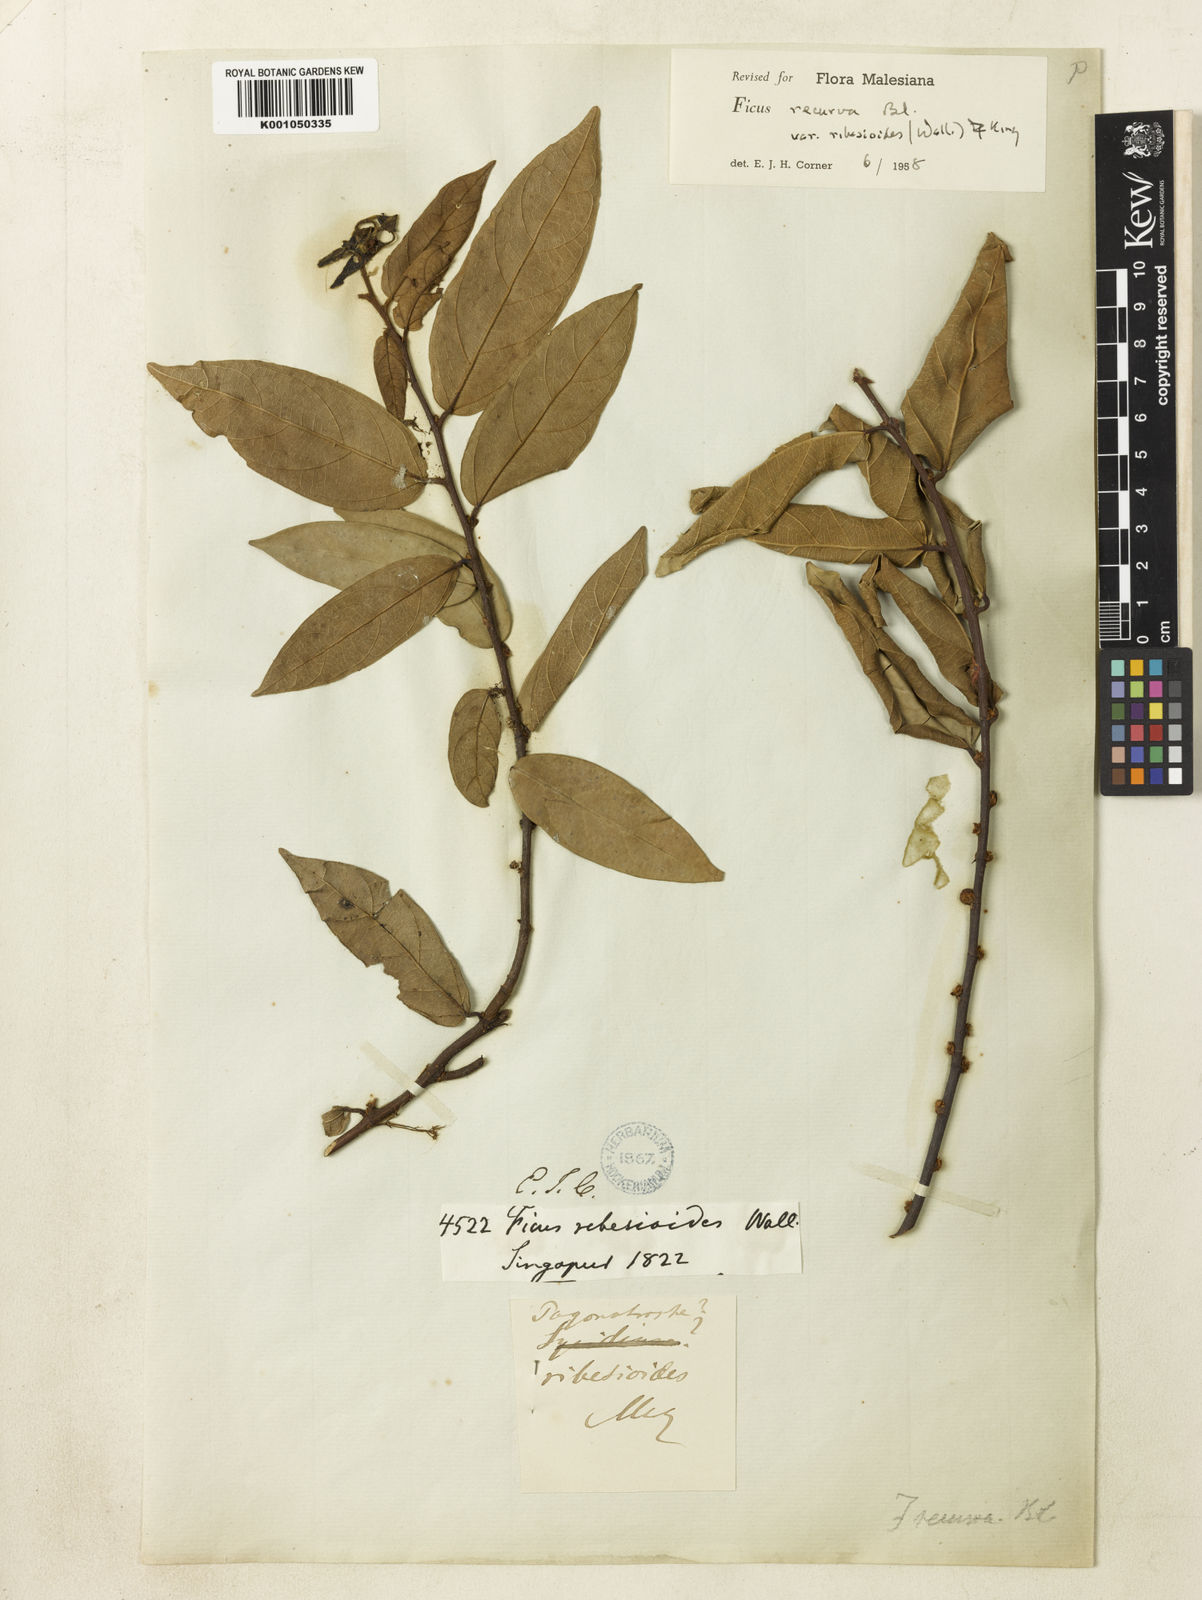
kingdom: Plantae
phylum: Tracheophyta
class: Magnoliopsida
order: Rosales
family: Moraceae
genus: Ficus
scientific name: Ficus recurva
